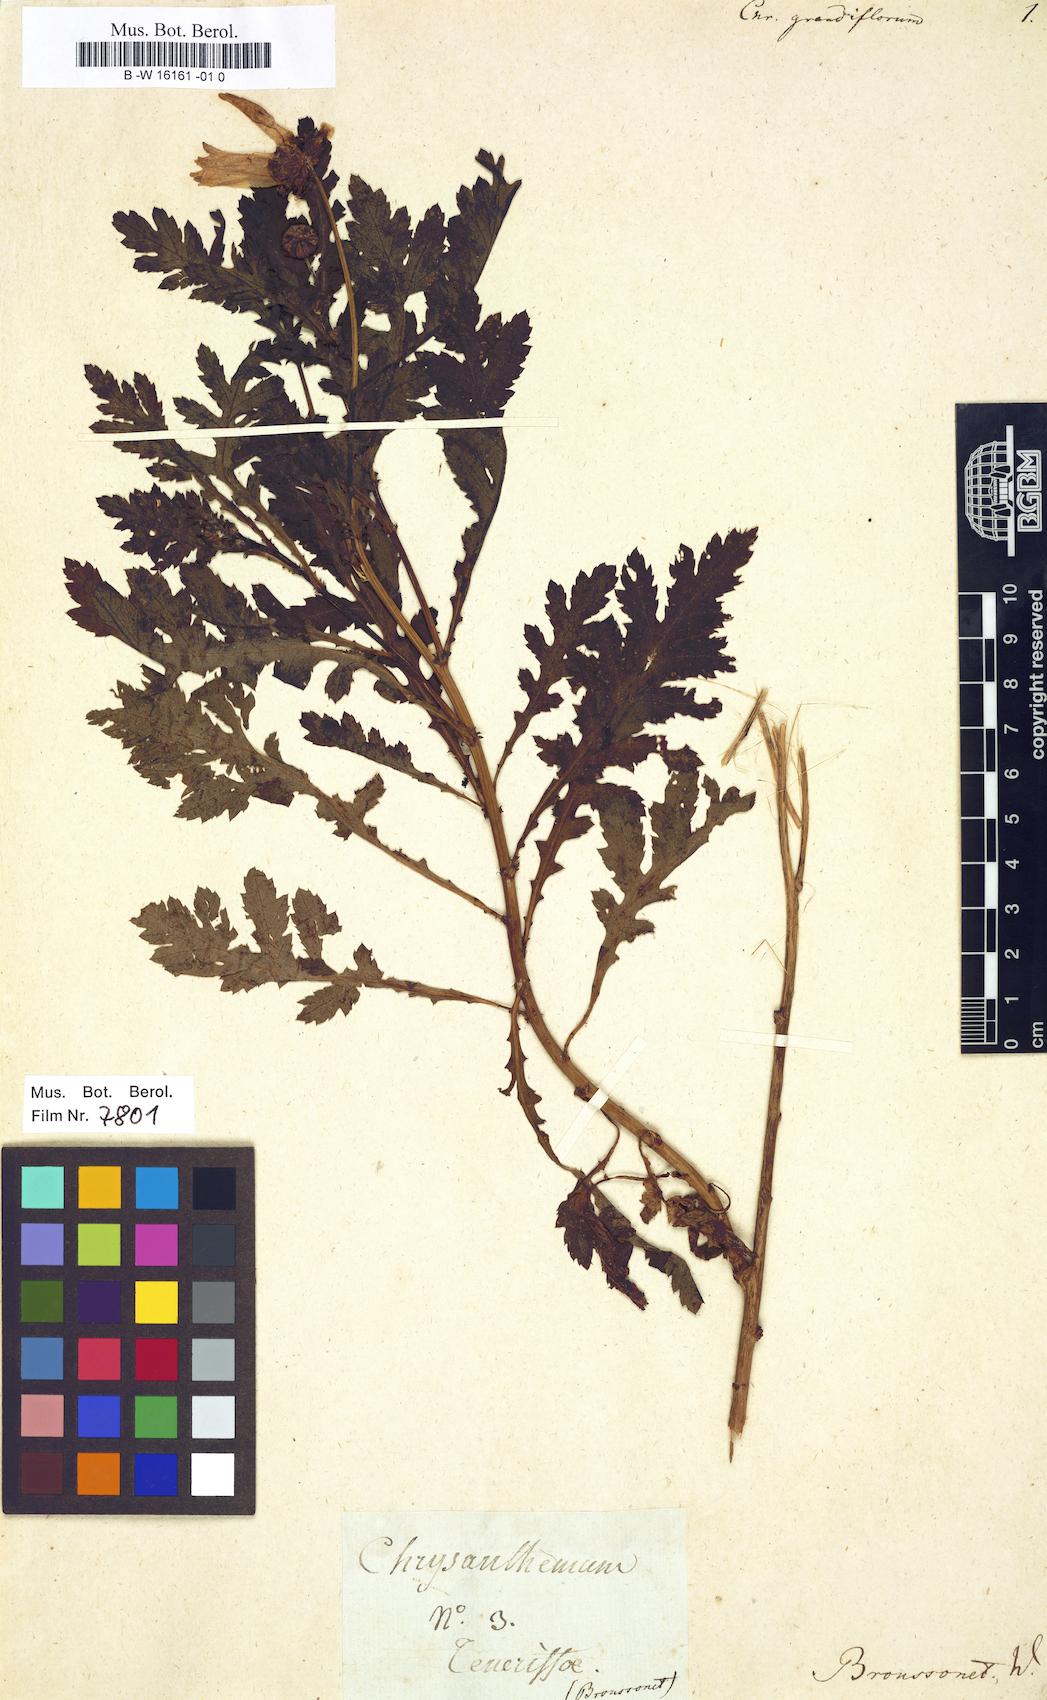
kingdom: Plantae
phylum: Tracheophyta
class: Magnoliopsida
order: Asterales
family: Asteraceae
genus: Plagius
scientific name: Plagius grandis
